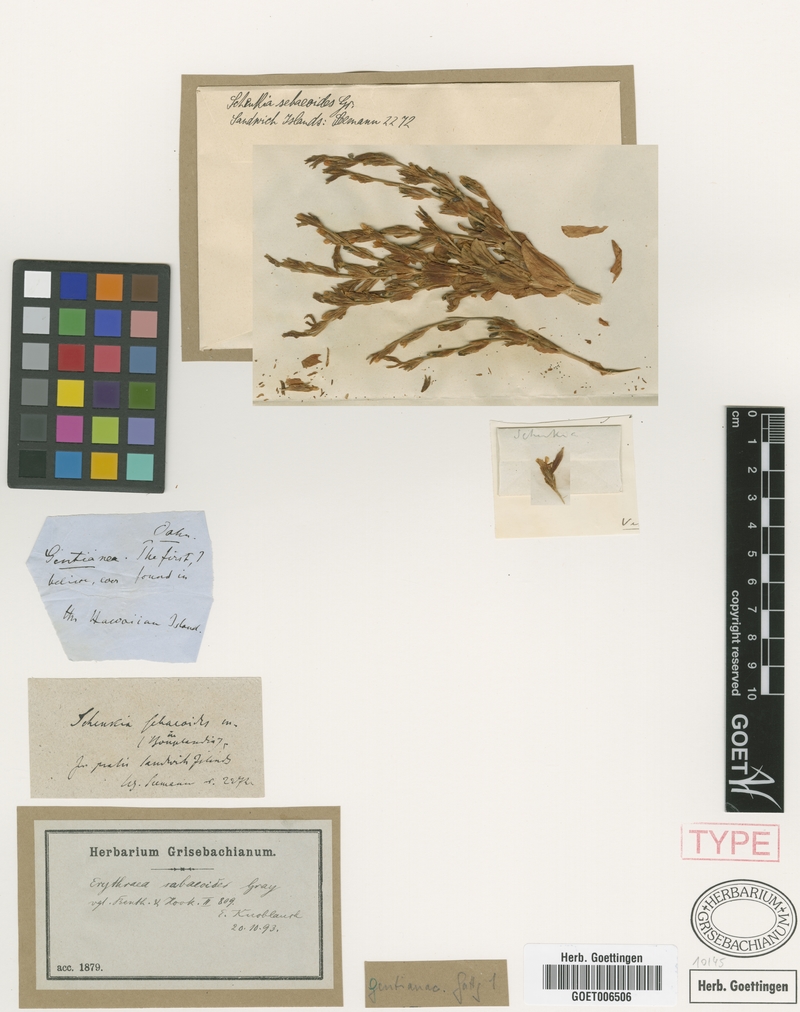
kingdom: Plantae
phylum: Tracheophyta
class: Magnoliopsida
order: Gentianales
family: Gentianaceae
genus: Schenkia
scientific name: Schenkia sebaeoides
